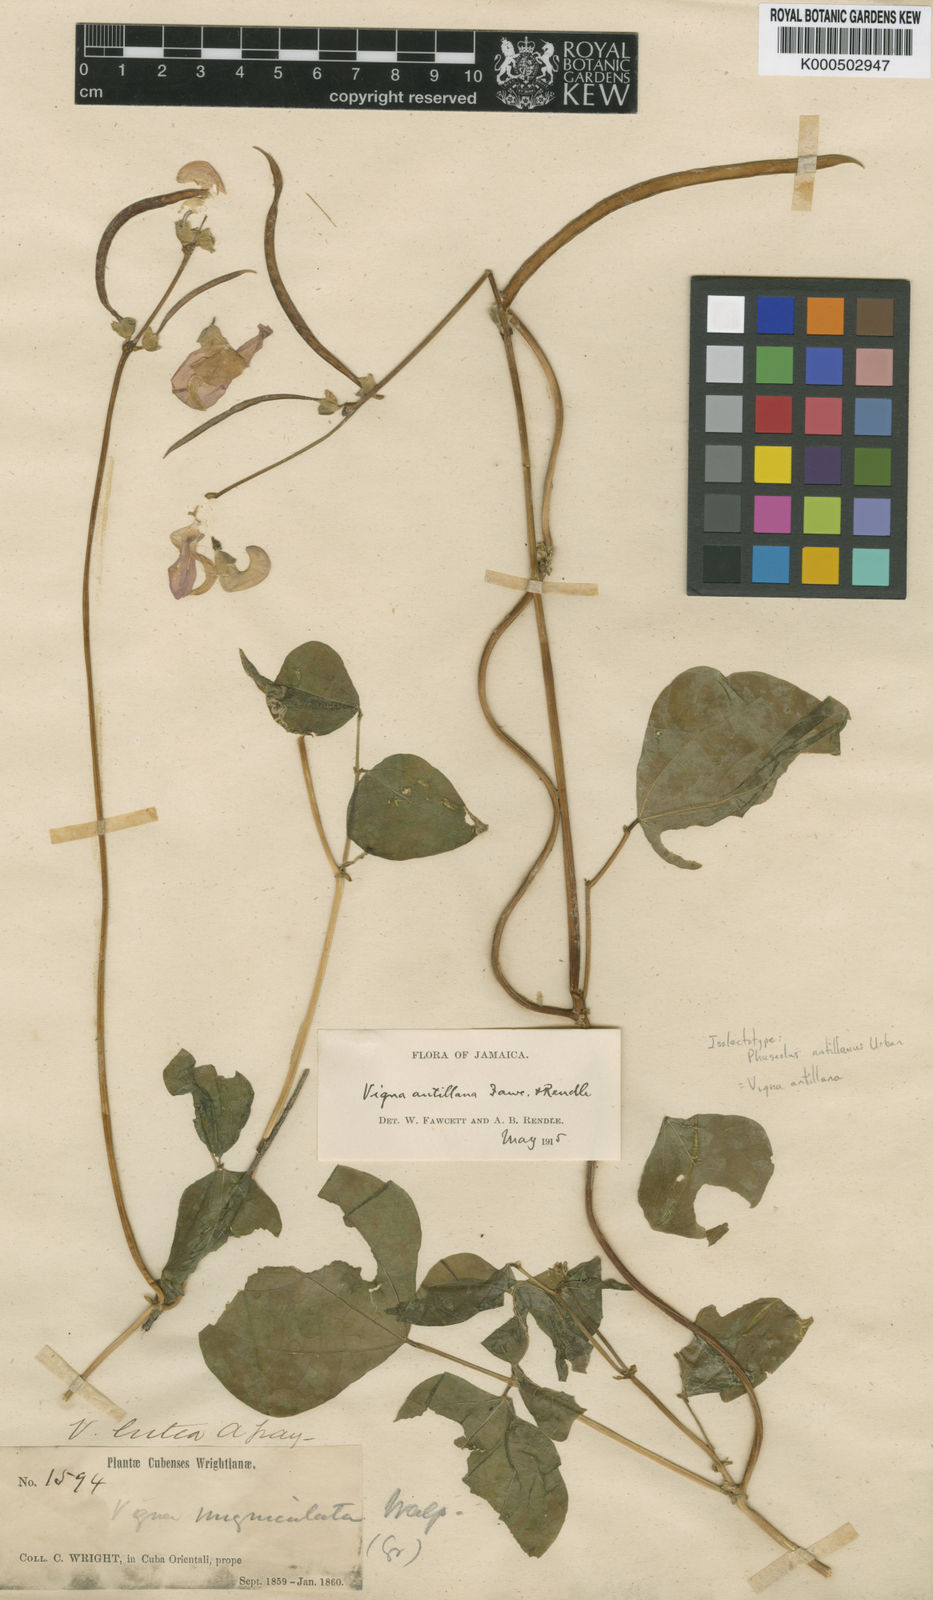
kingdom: Plantae
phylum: Tracheophyta
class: Magnoliopsida
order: Fabales
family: Fabaceae
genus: Sigmoidotropis
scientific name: Sigmoidotropis antillana
